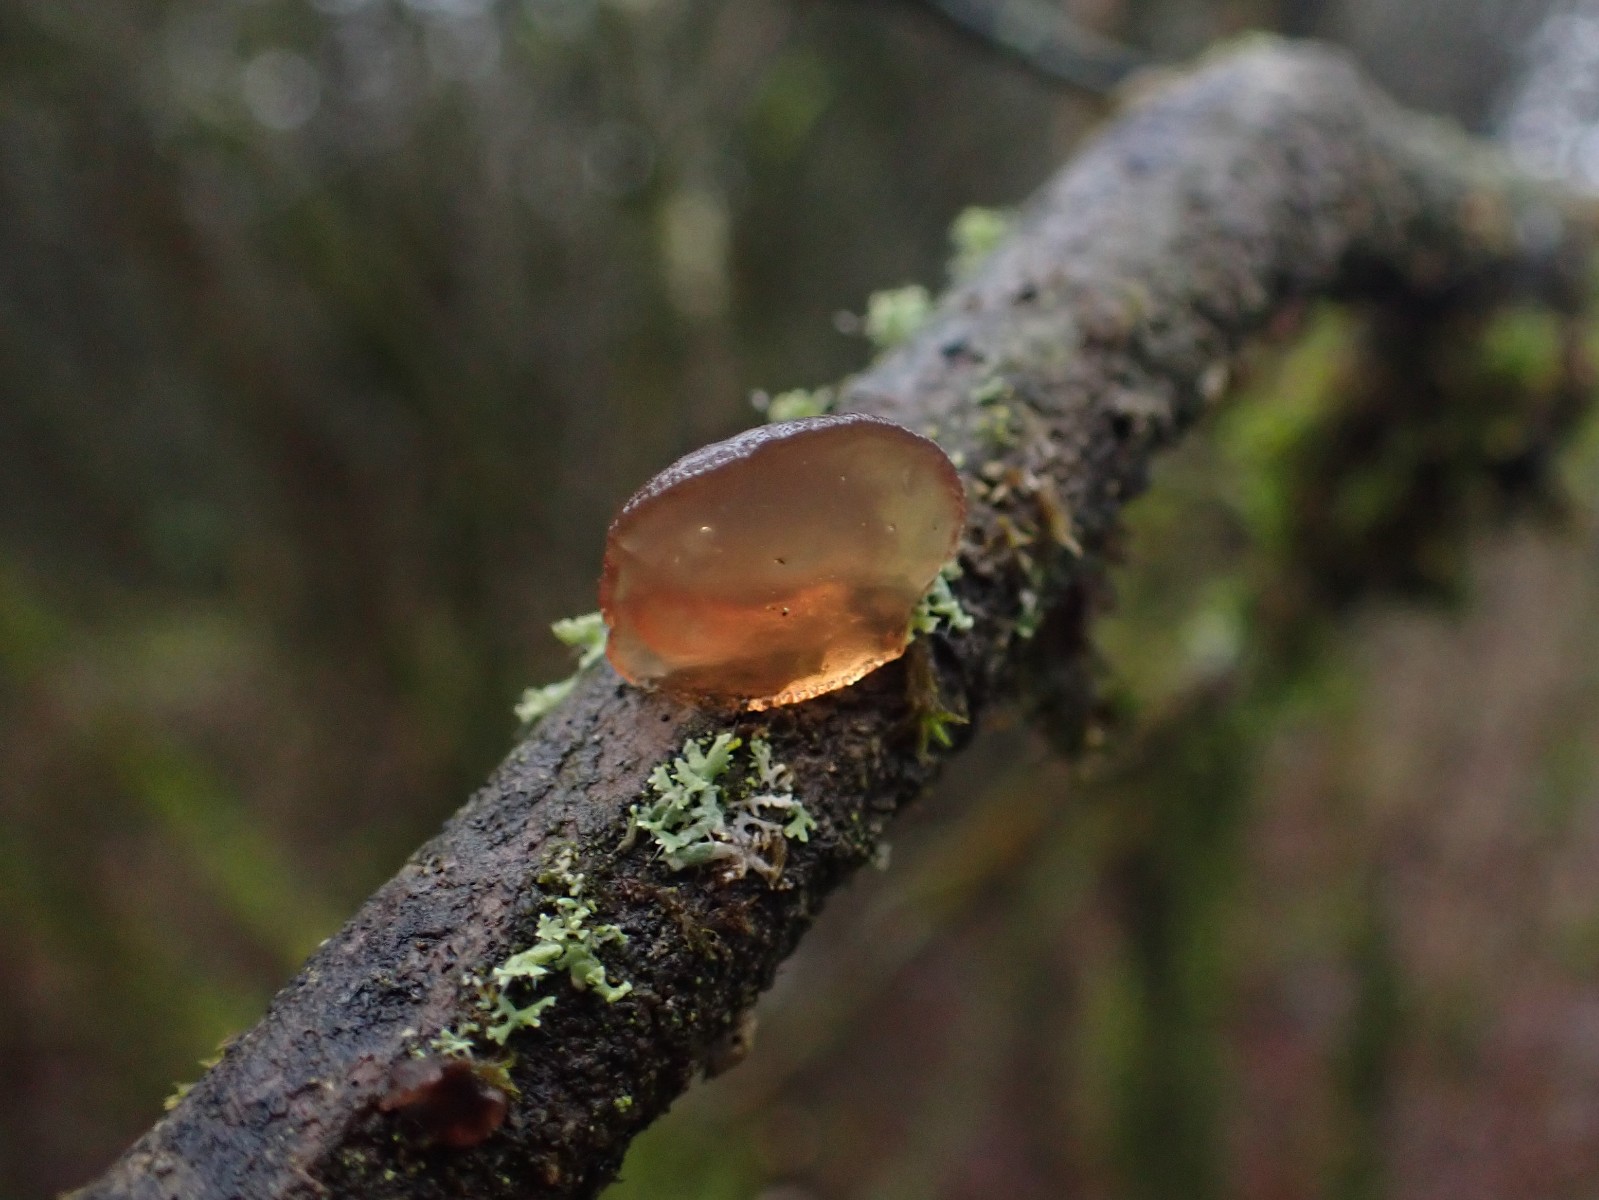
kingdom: Fungi
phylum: Basidiomycota
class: Agaricomycetes
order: Auriculariales
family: Auriculariaceae
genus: Exidia
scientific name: Exidia recisa
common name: pile-bævretop
